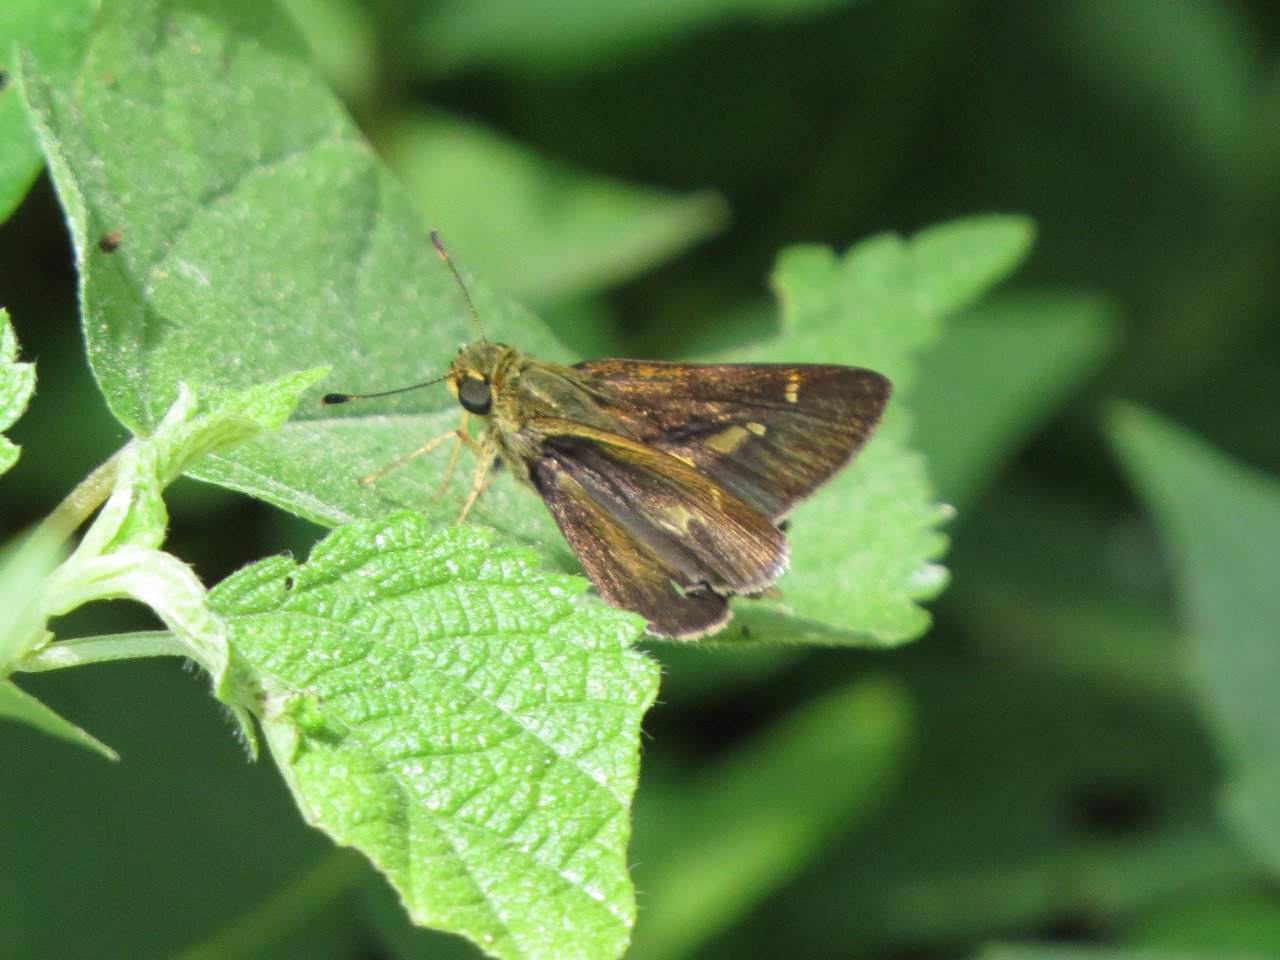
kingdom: Animalia
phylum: Arthropoda
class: Insecta
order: Lepidoptera
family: Hesperiidae
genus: Vernia
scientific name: Vernia verna
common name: Little Glassywing
